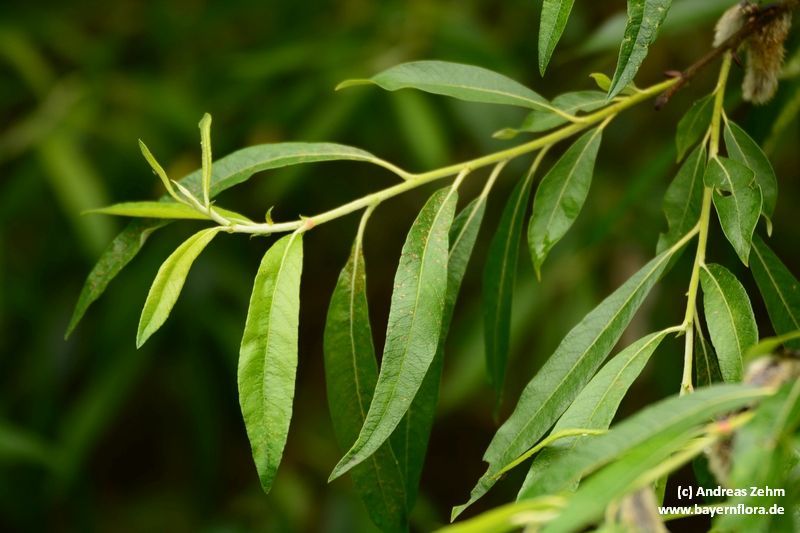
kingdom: Plantae
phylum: Tracheophyta
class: Magnoliopsida
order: Malpighiales
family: Salicaceae
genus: Salix
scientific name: Salix mollissima
